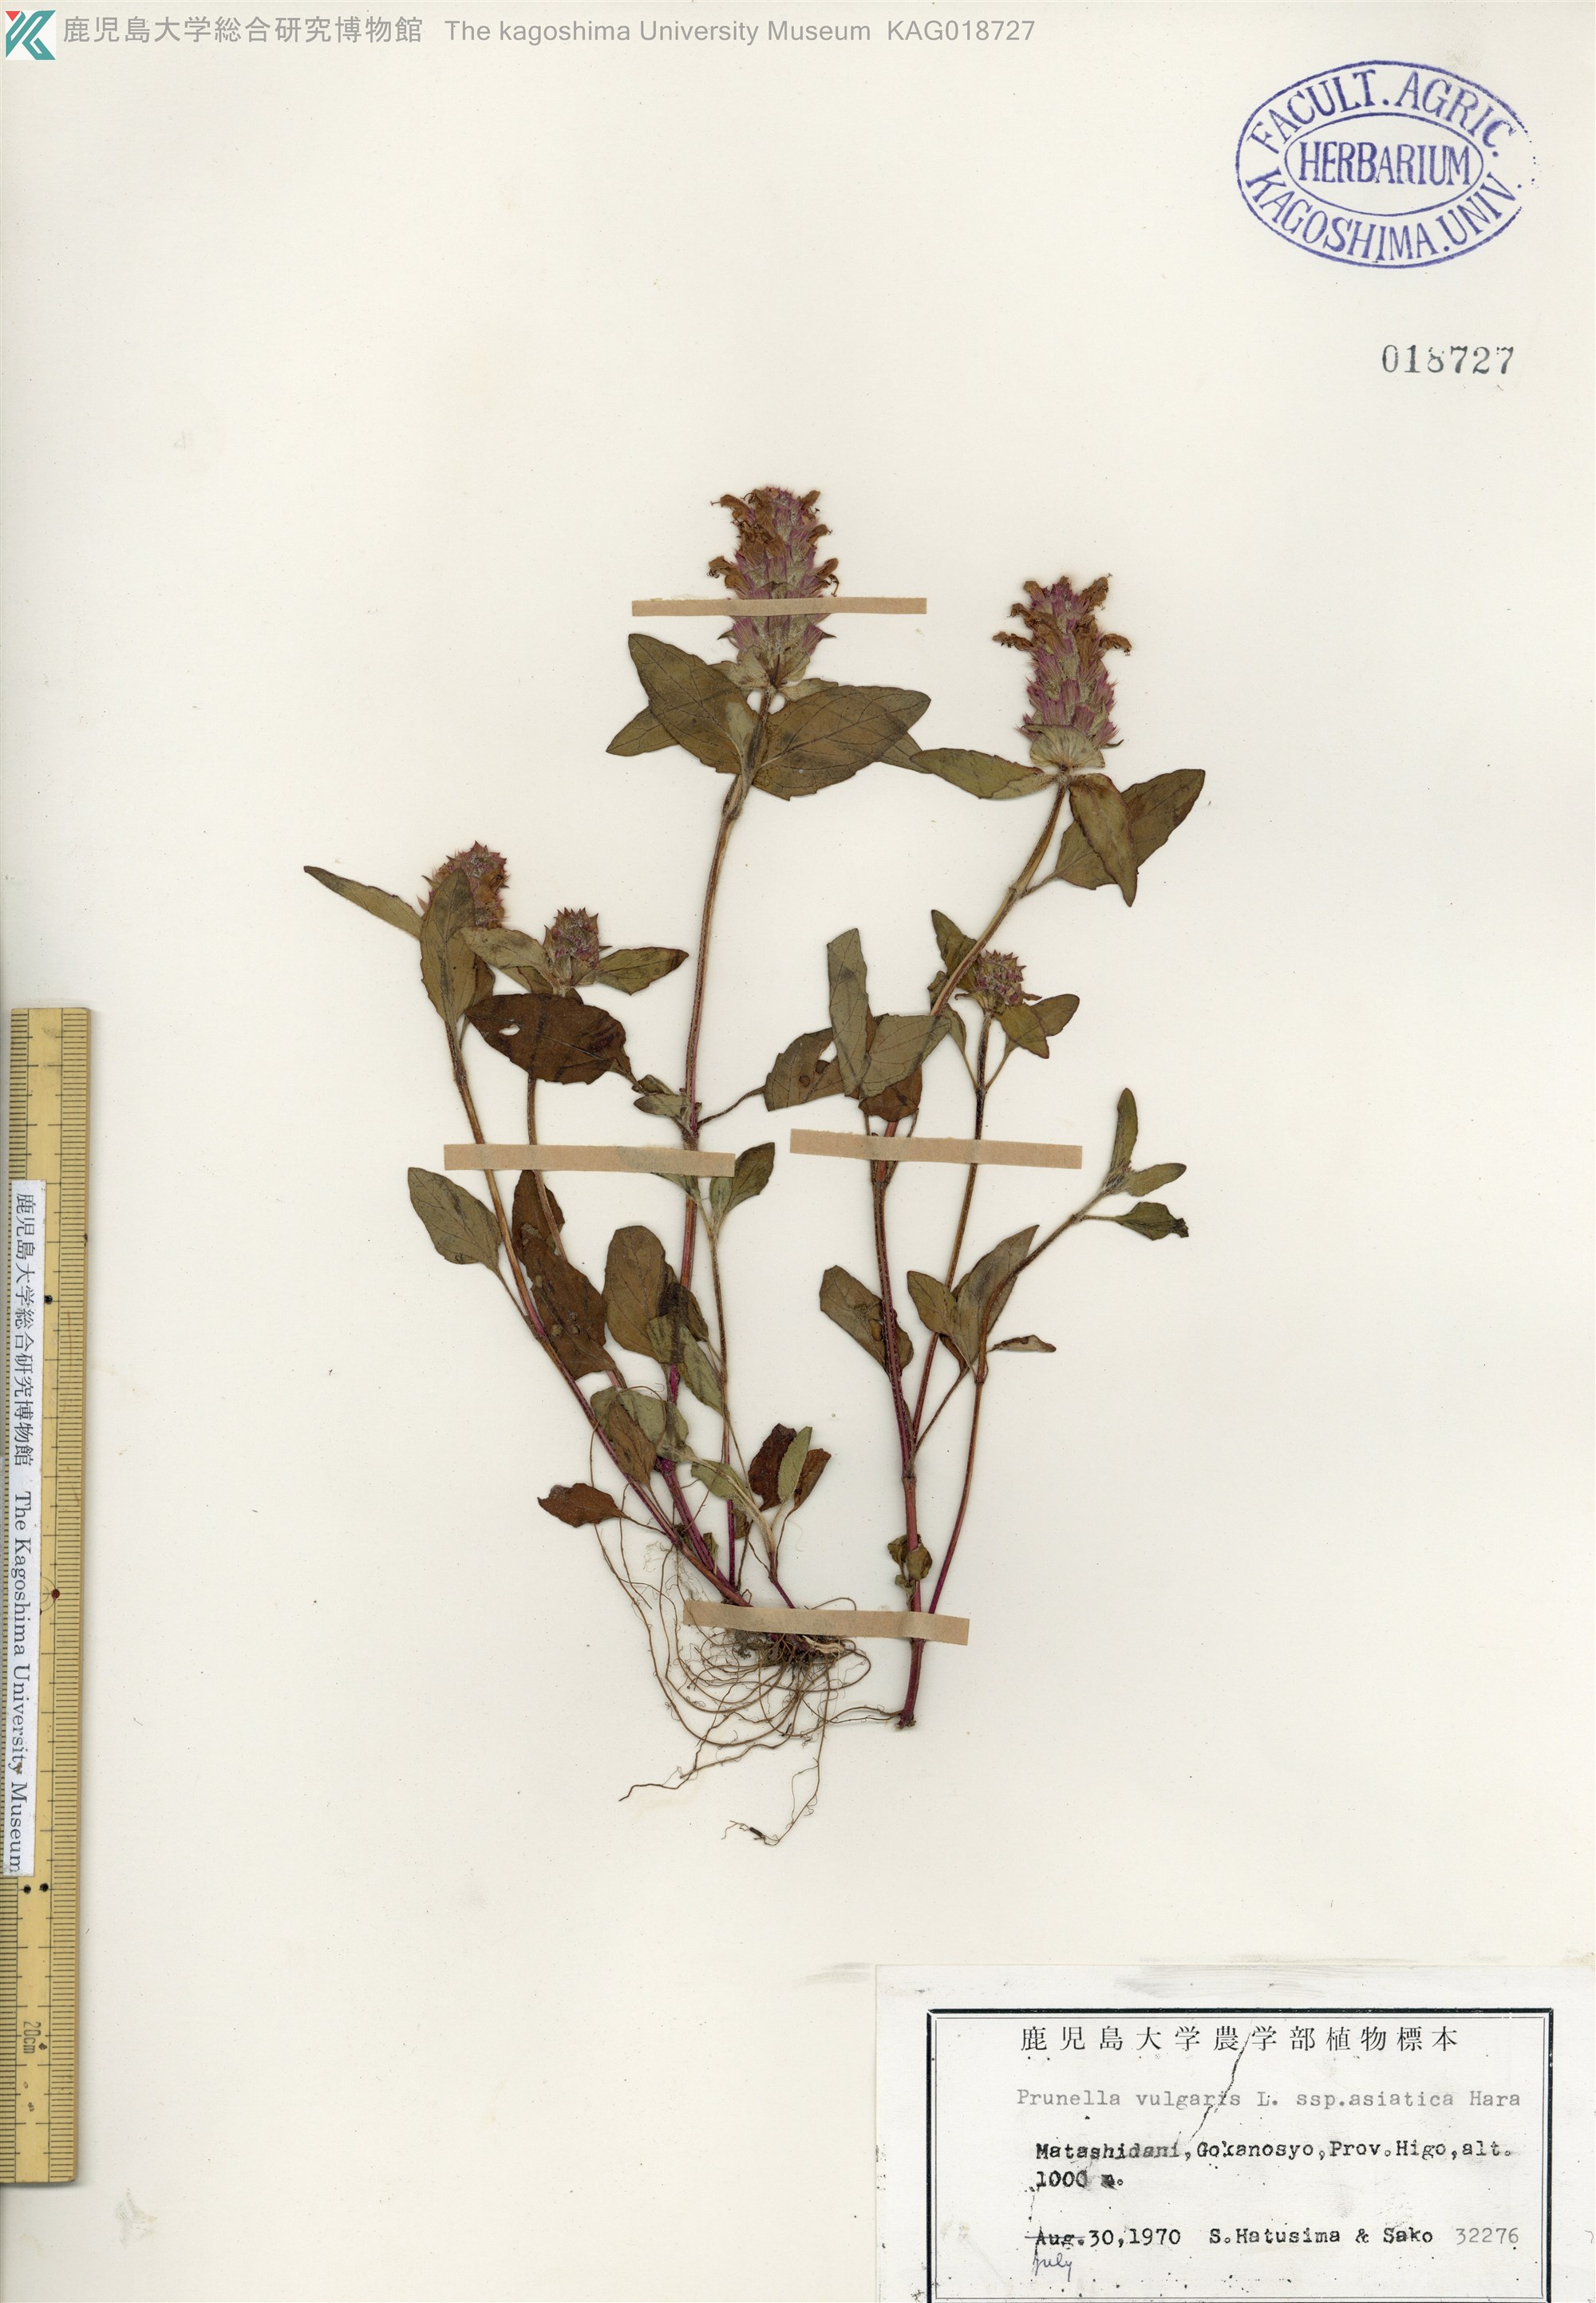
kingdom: Plantae
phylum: Tracheophyta
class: Magnoliopsida
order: Lamiales
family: Lamiaceae
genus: Prunella
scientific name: Prunella vulgaris
